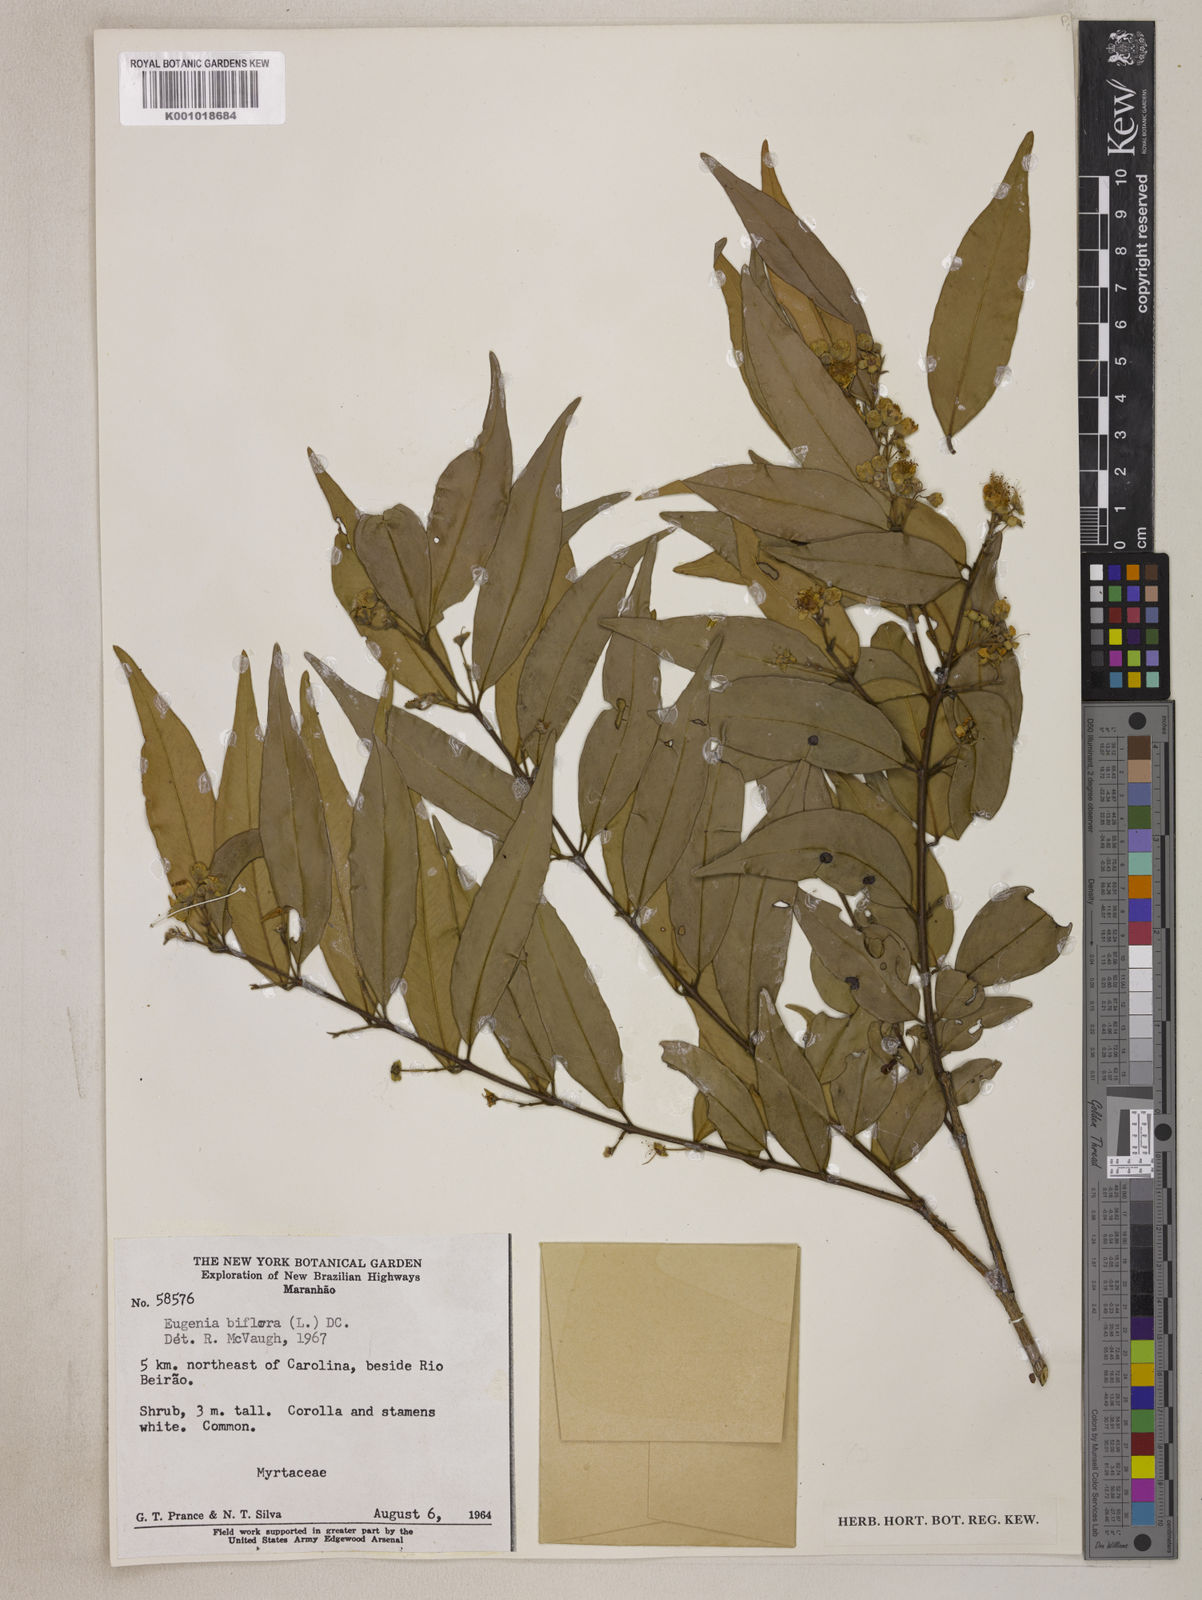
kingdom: Plantae
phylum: Tracheophyta
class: Magnoliopsida
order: Myrtales
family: Myrtaceae
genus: Eugenia
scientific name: Eugenia biflora
